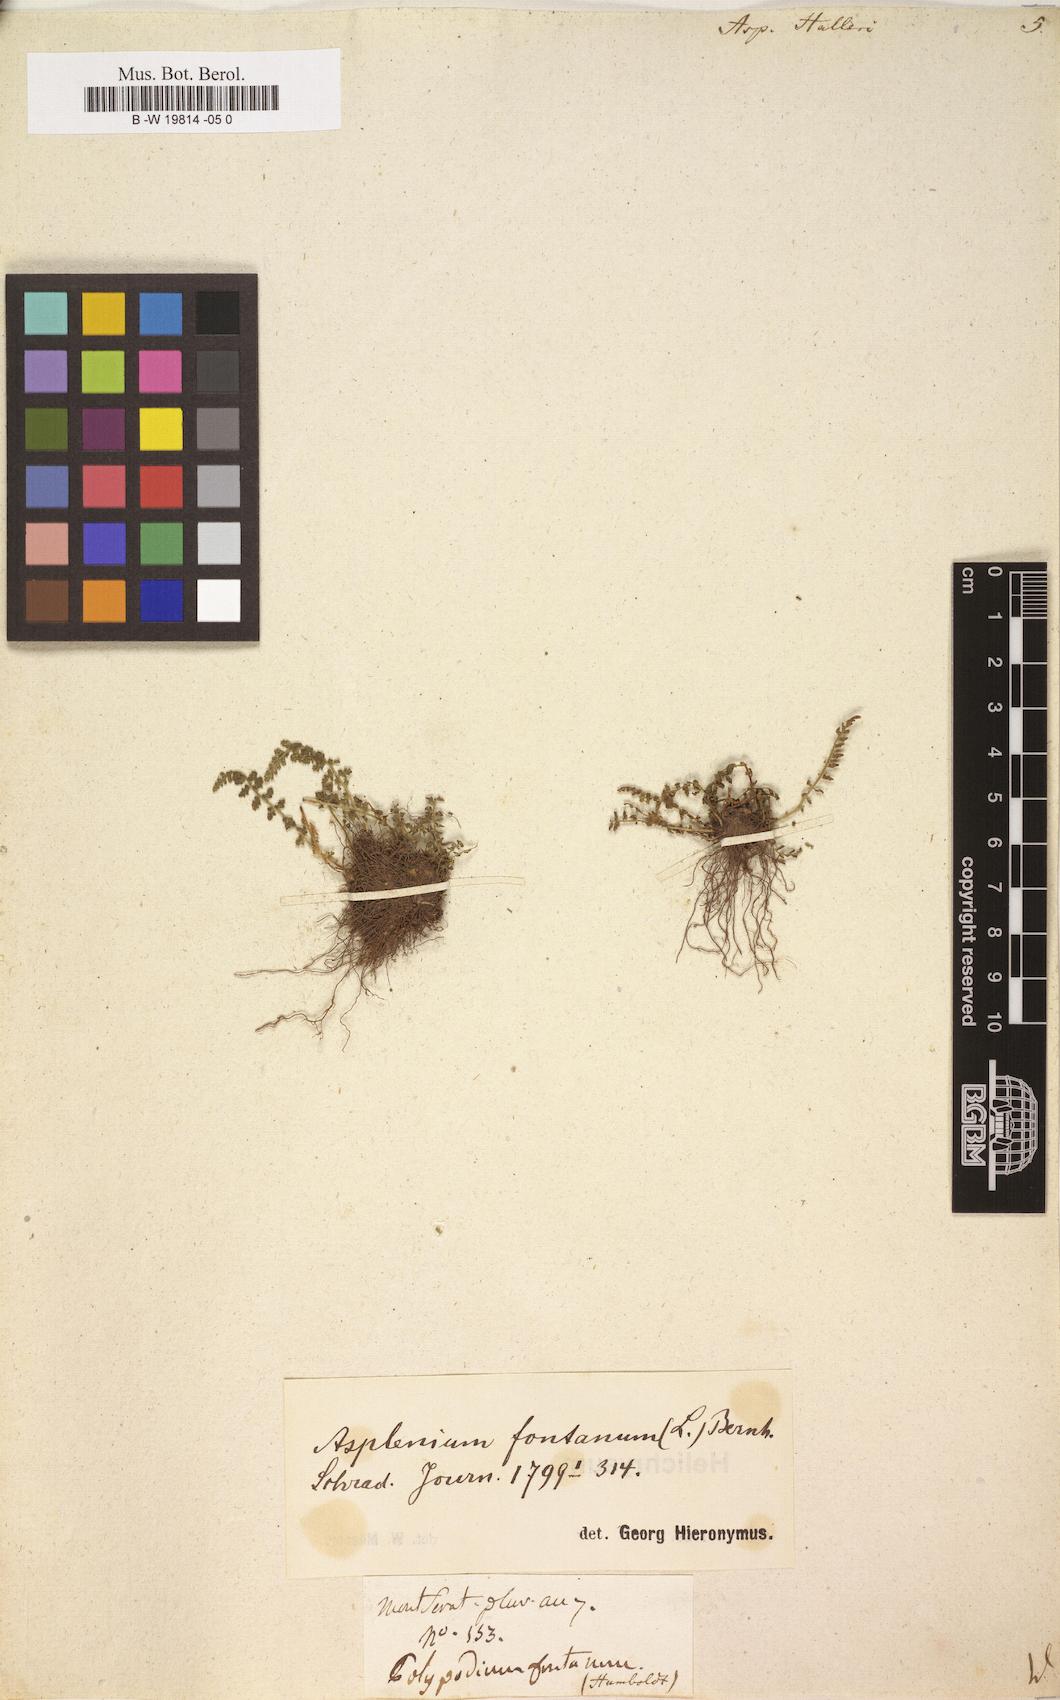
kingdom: Plantae
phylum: Tracheophyta
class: Polypodiopsida
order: Polypodiales
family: Aspleniaceae
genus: Asplenium
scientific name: Asplenium fontanum
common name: Fountain spleenwort
